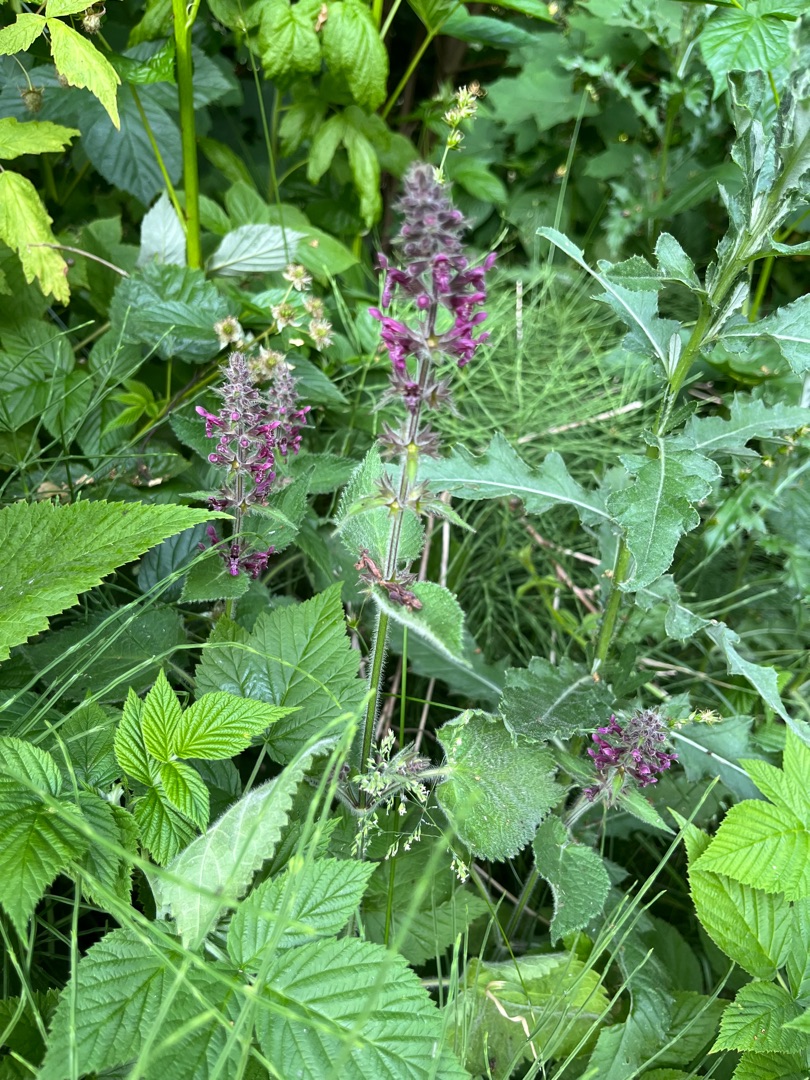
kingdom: Plantae
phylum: Tracheophyta
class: Magnoliopsida
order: Lamiales
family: Lamiaceae
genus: Stachys
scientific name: Stachys sylvatica
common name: Skov-galtetand
